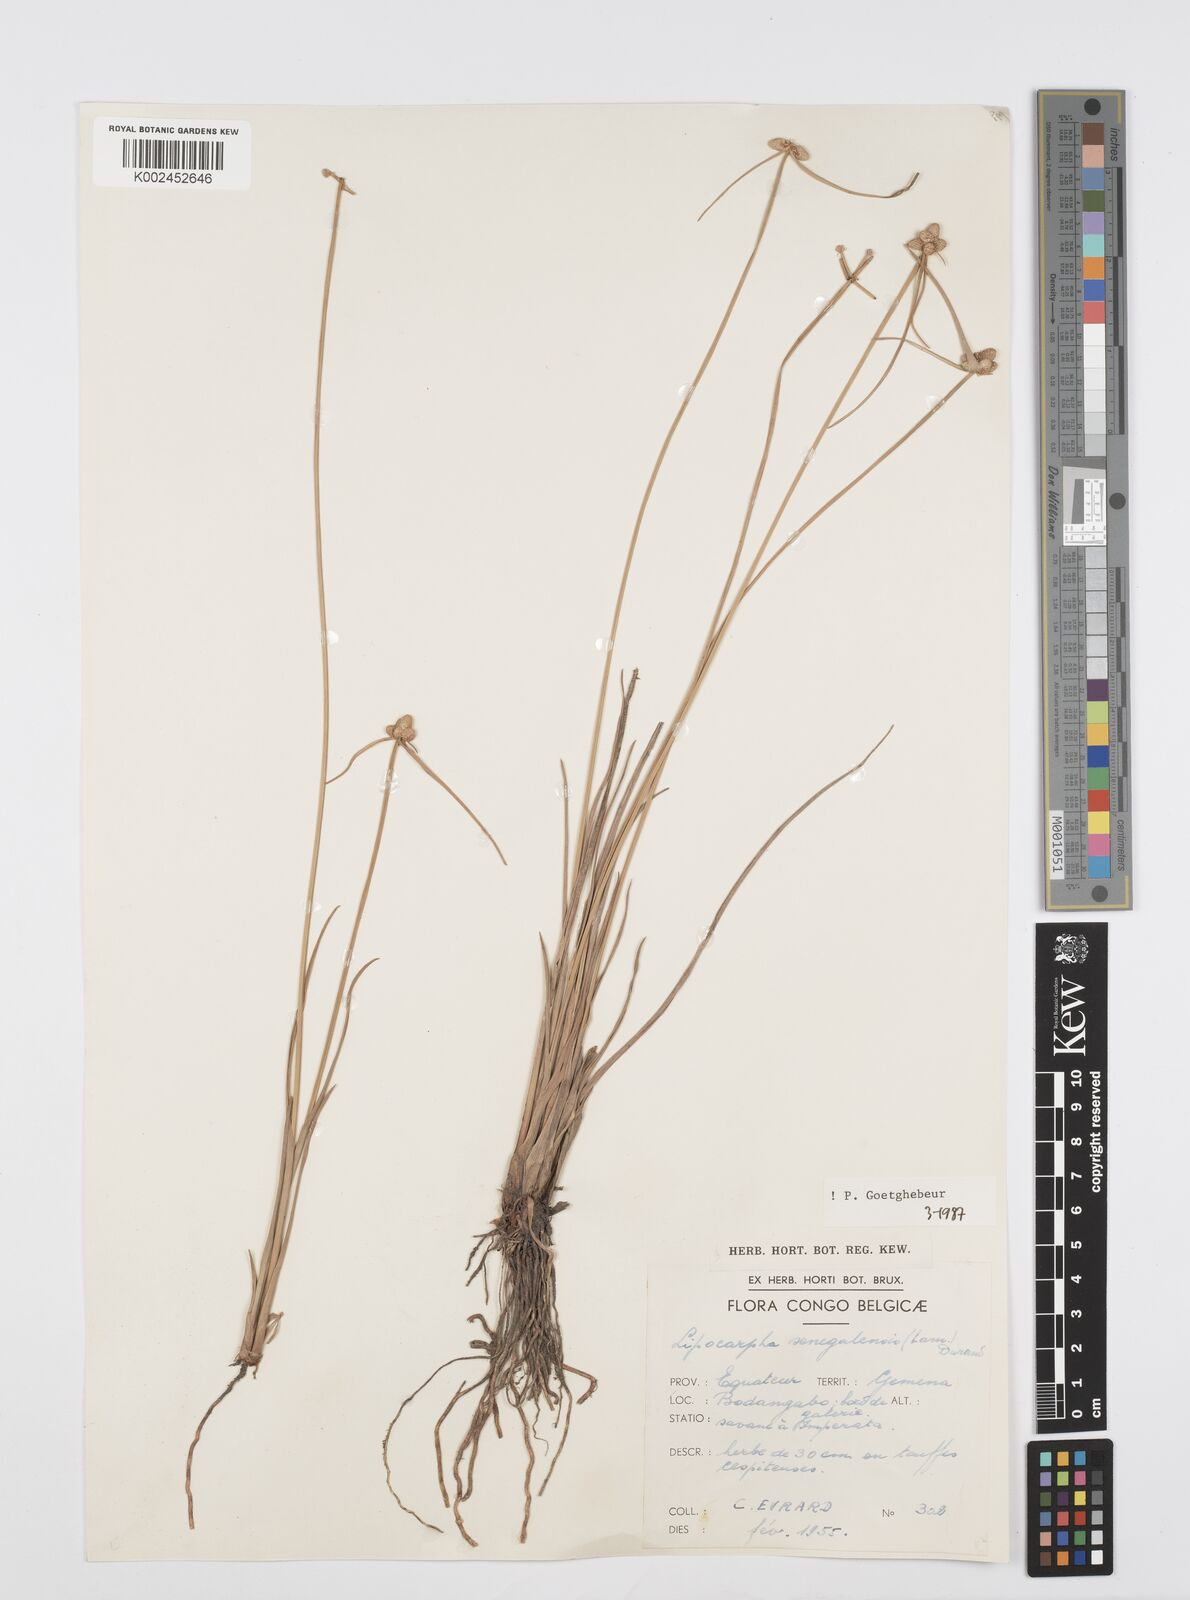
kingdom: Plantae
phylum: Tracheophyta
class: Liliopsida
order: Poales
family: Cyperaceae
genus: Cyperus
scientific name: Cyperus albescens
